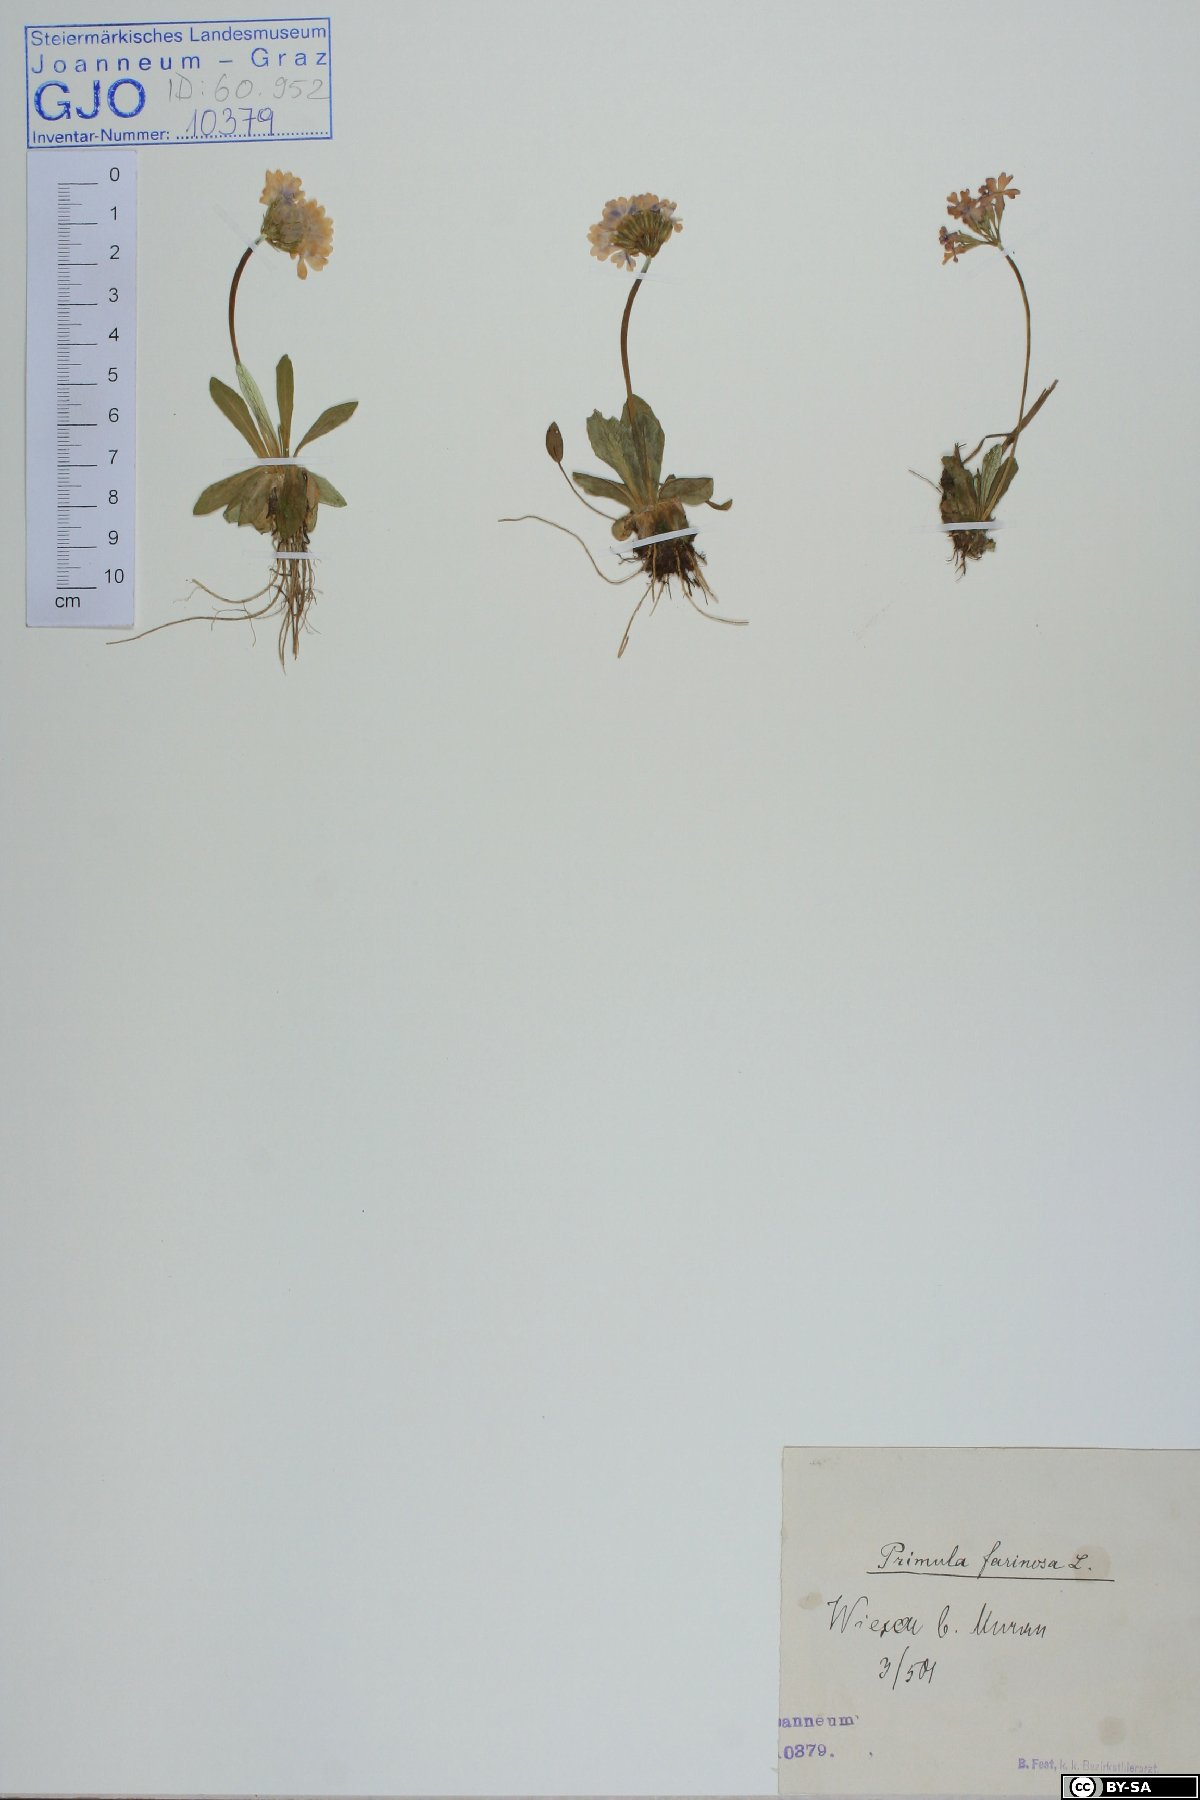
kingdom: Plantae
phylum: Tracheophyta
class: Magnoliopsida
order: Ericales
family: Primulaceae
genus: Primula
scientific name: Primula farinosa
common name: Bird's-eye primrose
